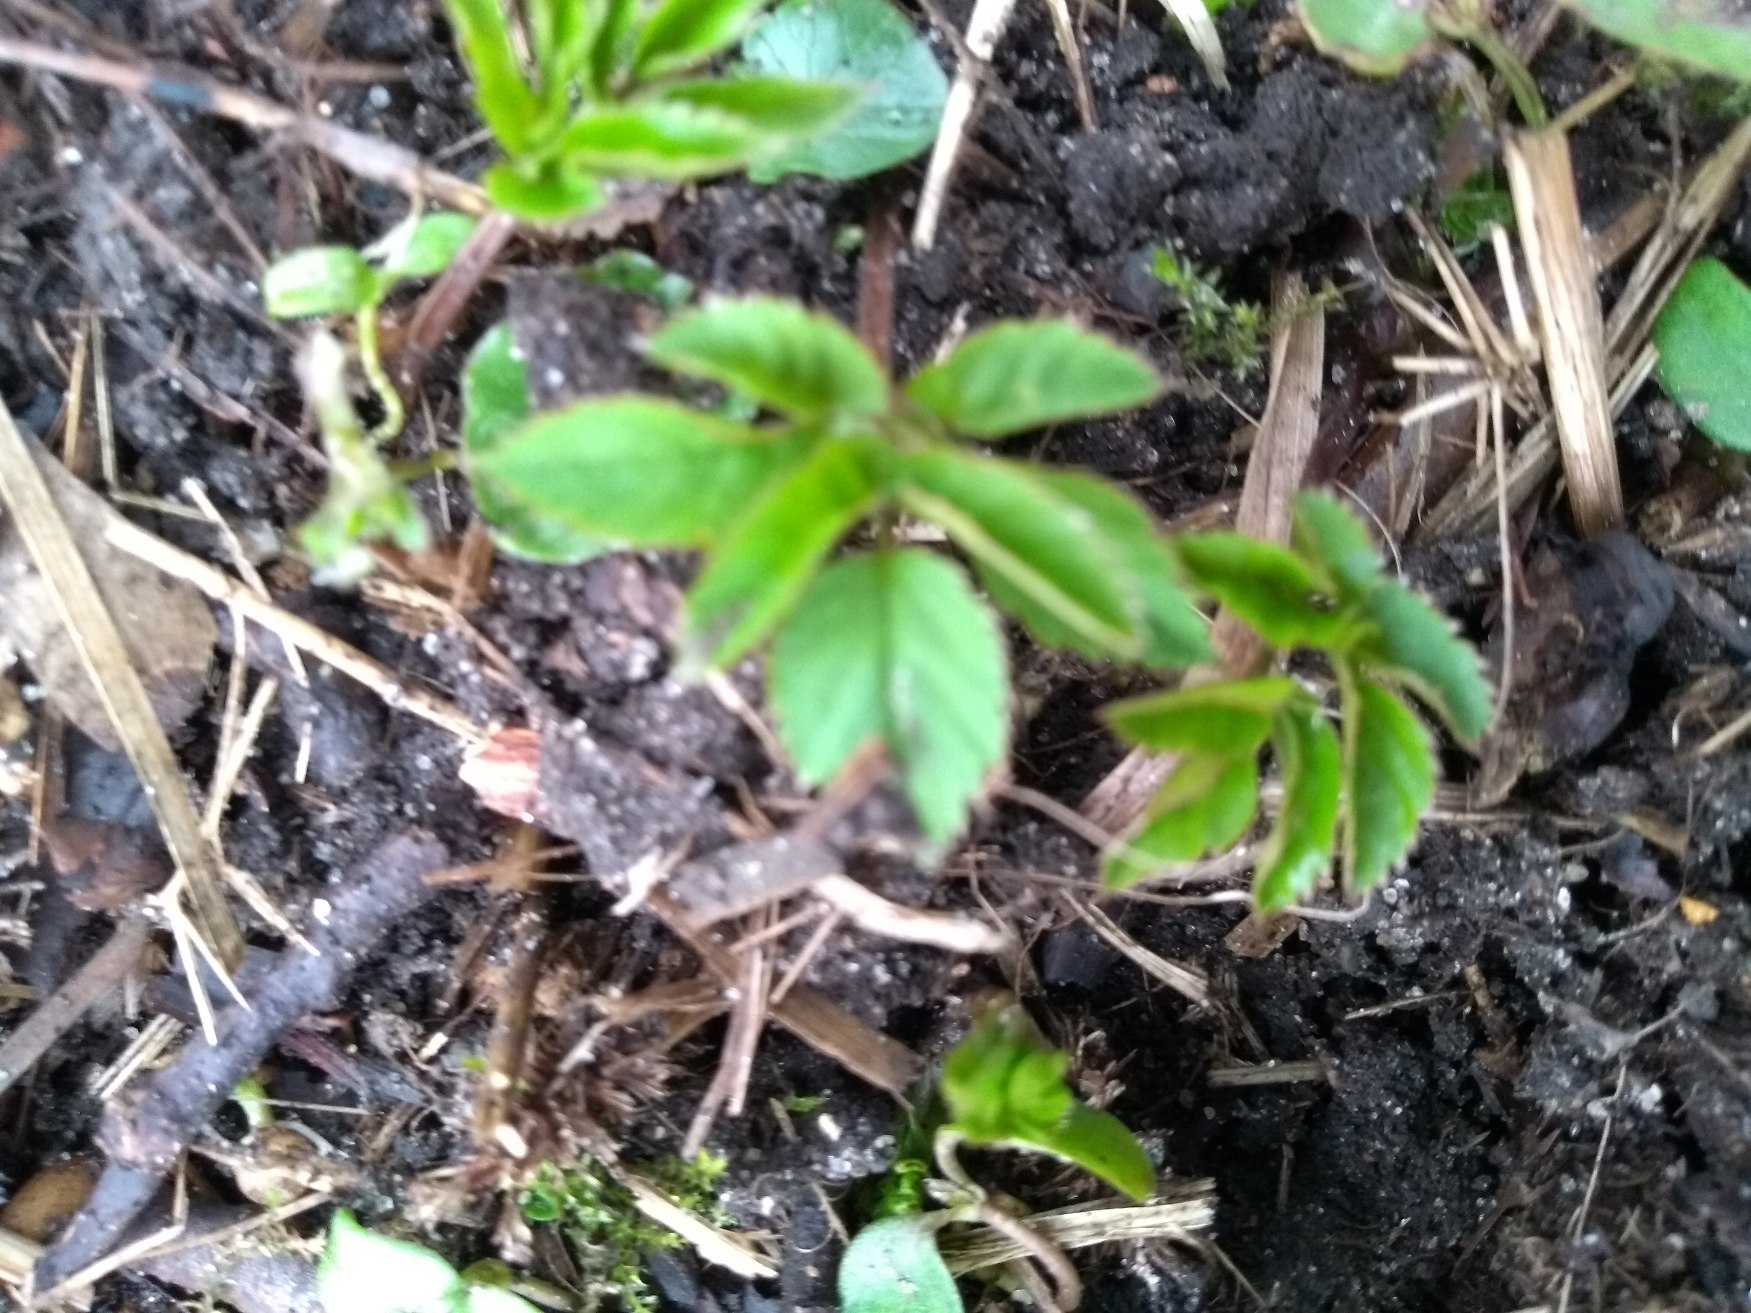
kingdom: Plantae
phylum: Tracheophyta
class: Magnoliopsida
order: Apiales
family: Apiaceae
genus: Aegopodium
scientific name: Aegopodium podagraria
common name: Skvalderkål
